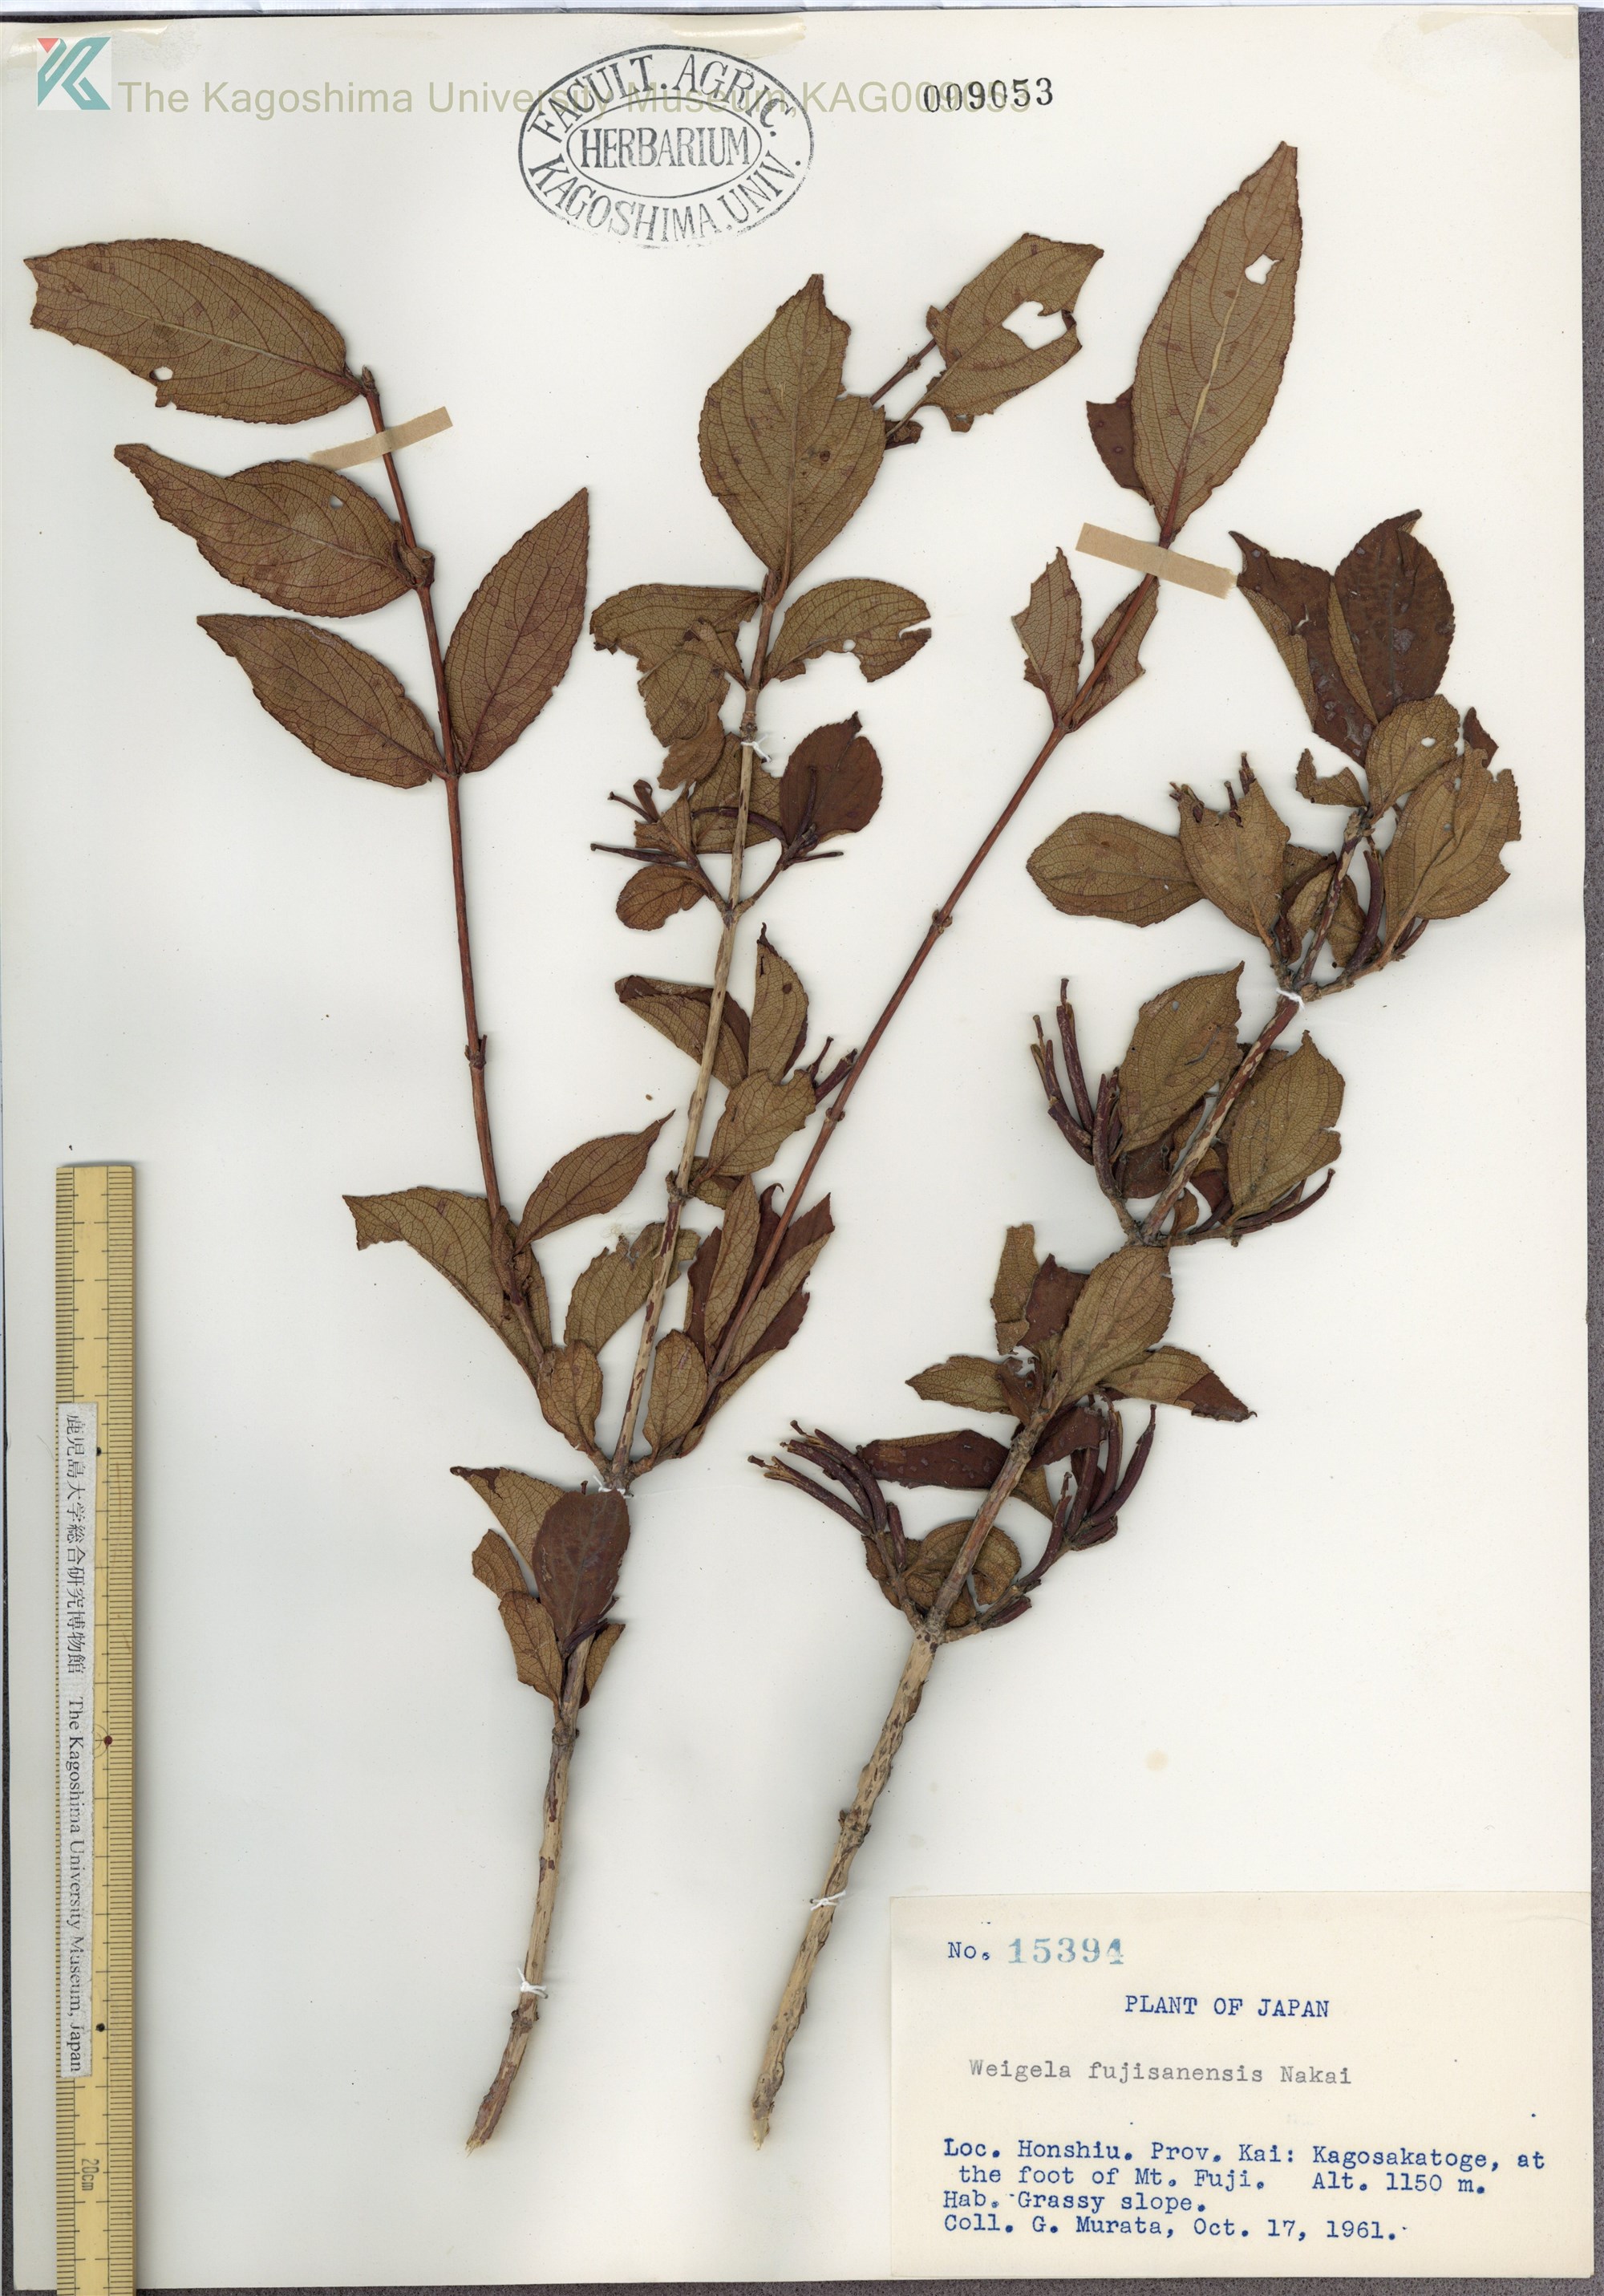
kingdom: Plantae
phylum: Tracheophyta
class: Magnoliopsida
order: Dipsacales
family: Caprifoliaceae
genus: Weigela
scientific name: Weigela decora
